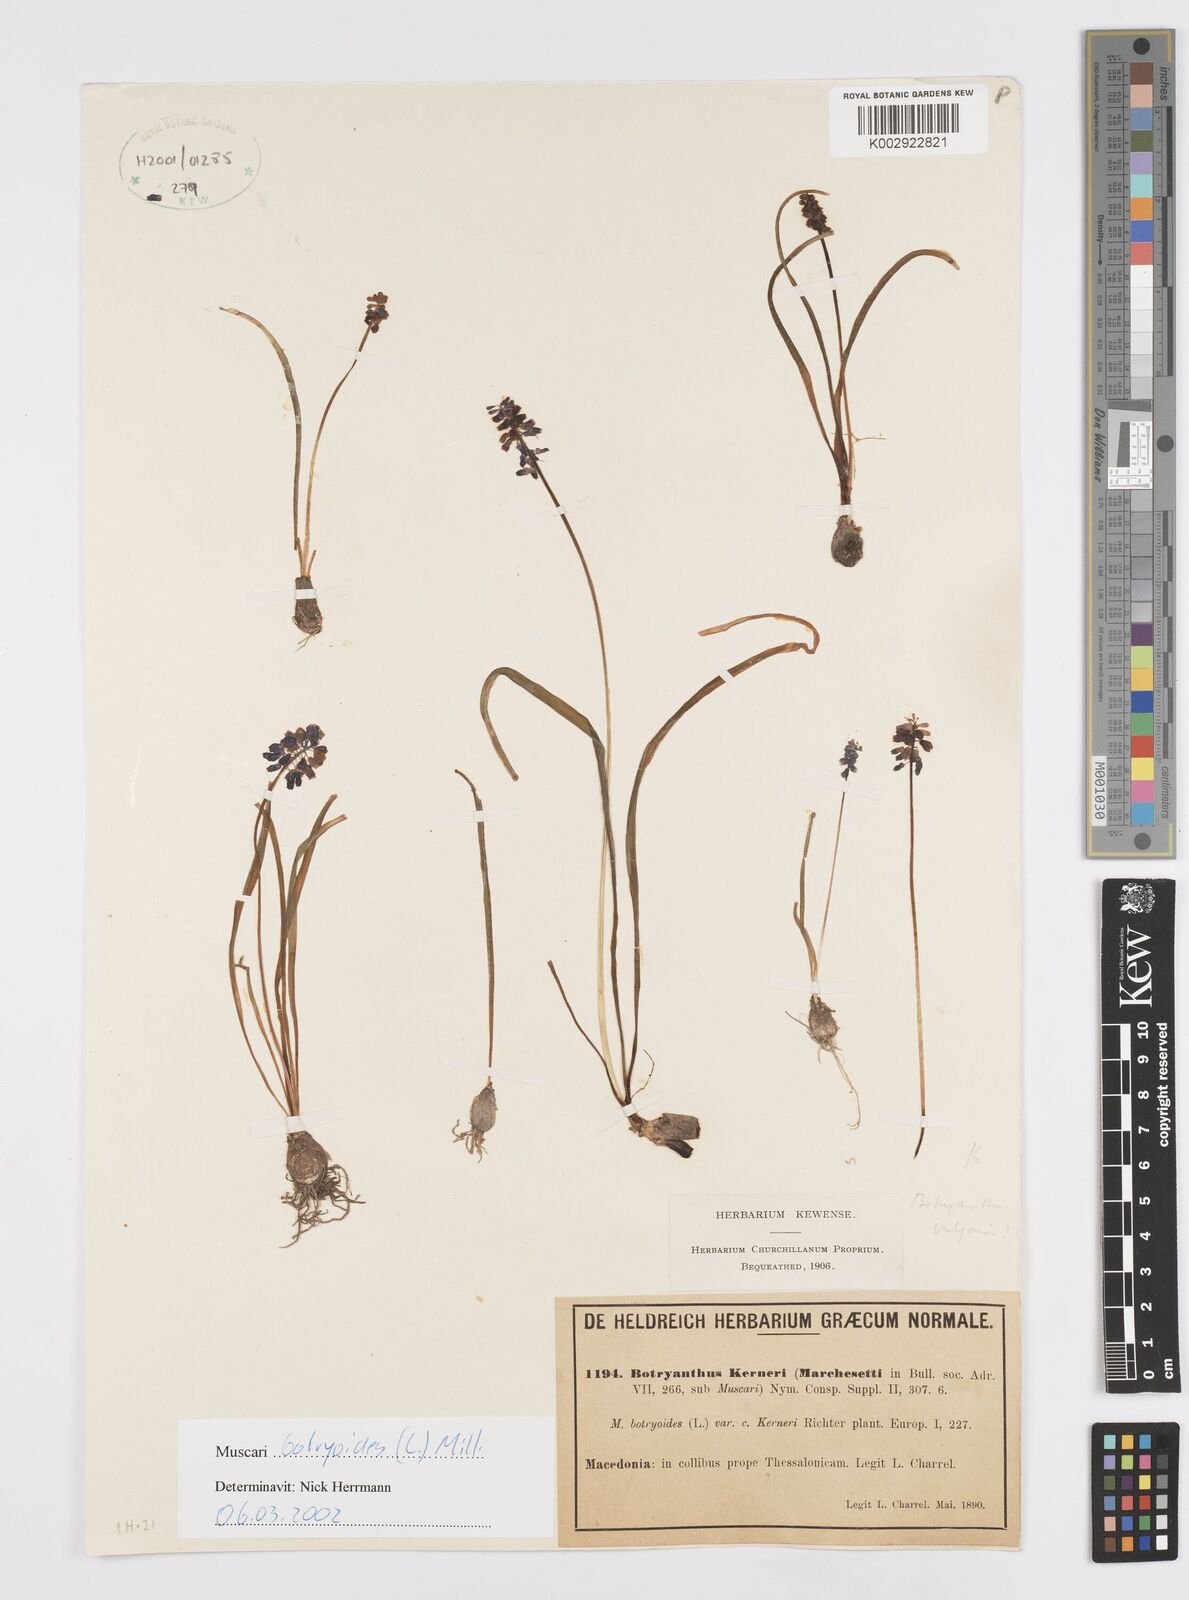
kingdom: Plantae
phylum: Tracheophyta
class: Liliopsida
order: Asparagales
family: Asparagaceae
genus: Muscari
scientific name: Muscari botryoides
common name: Compact grape-hyacinth
